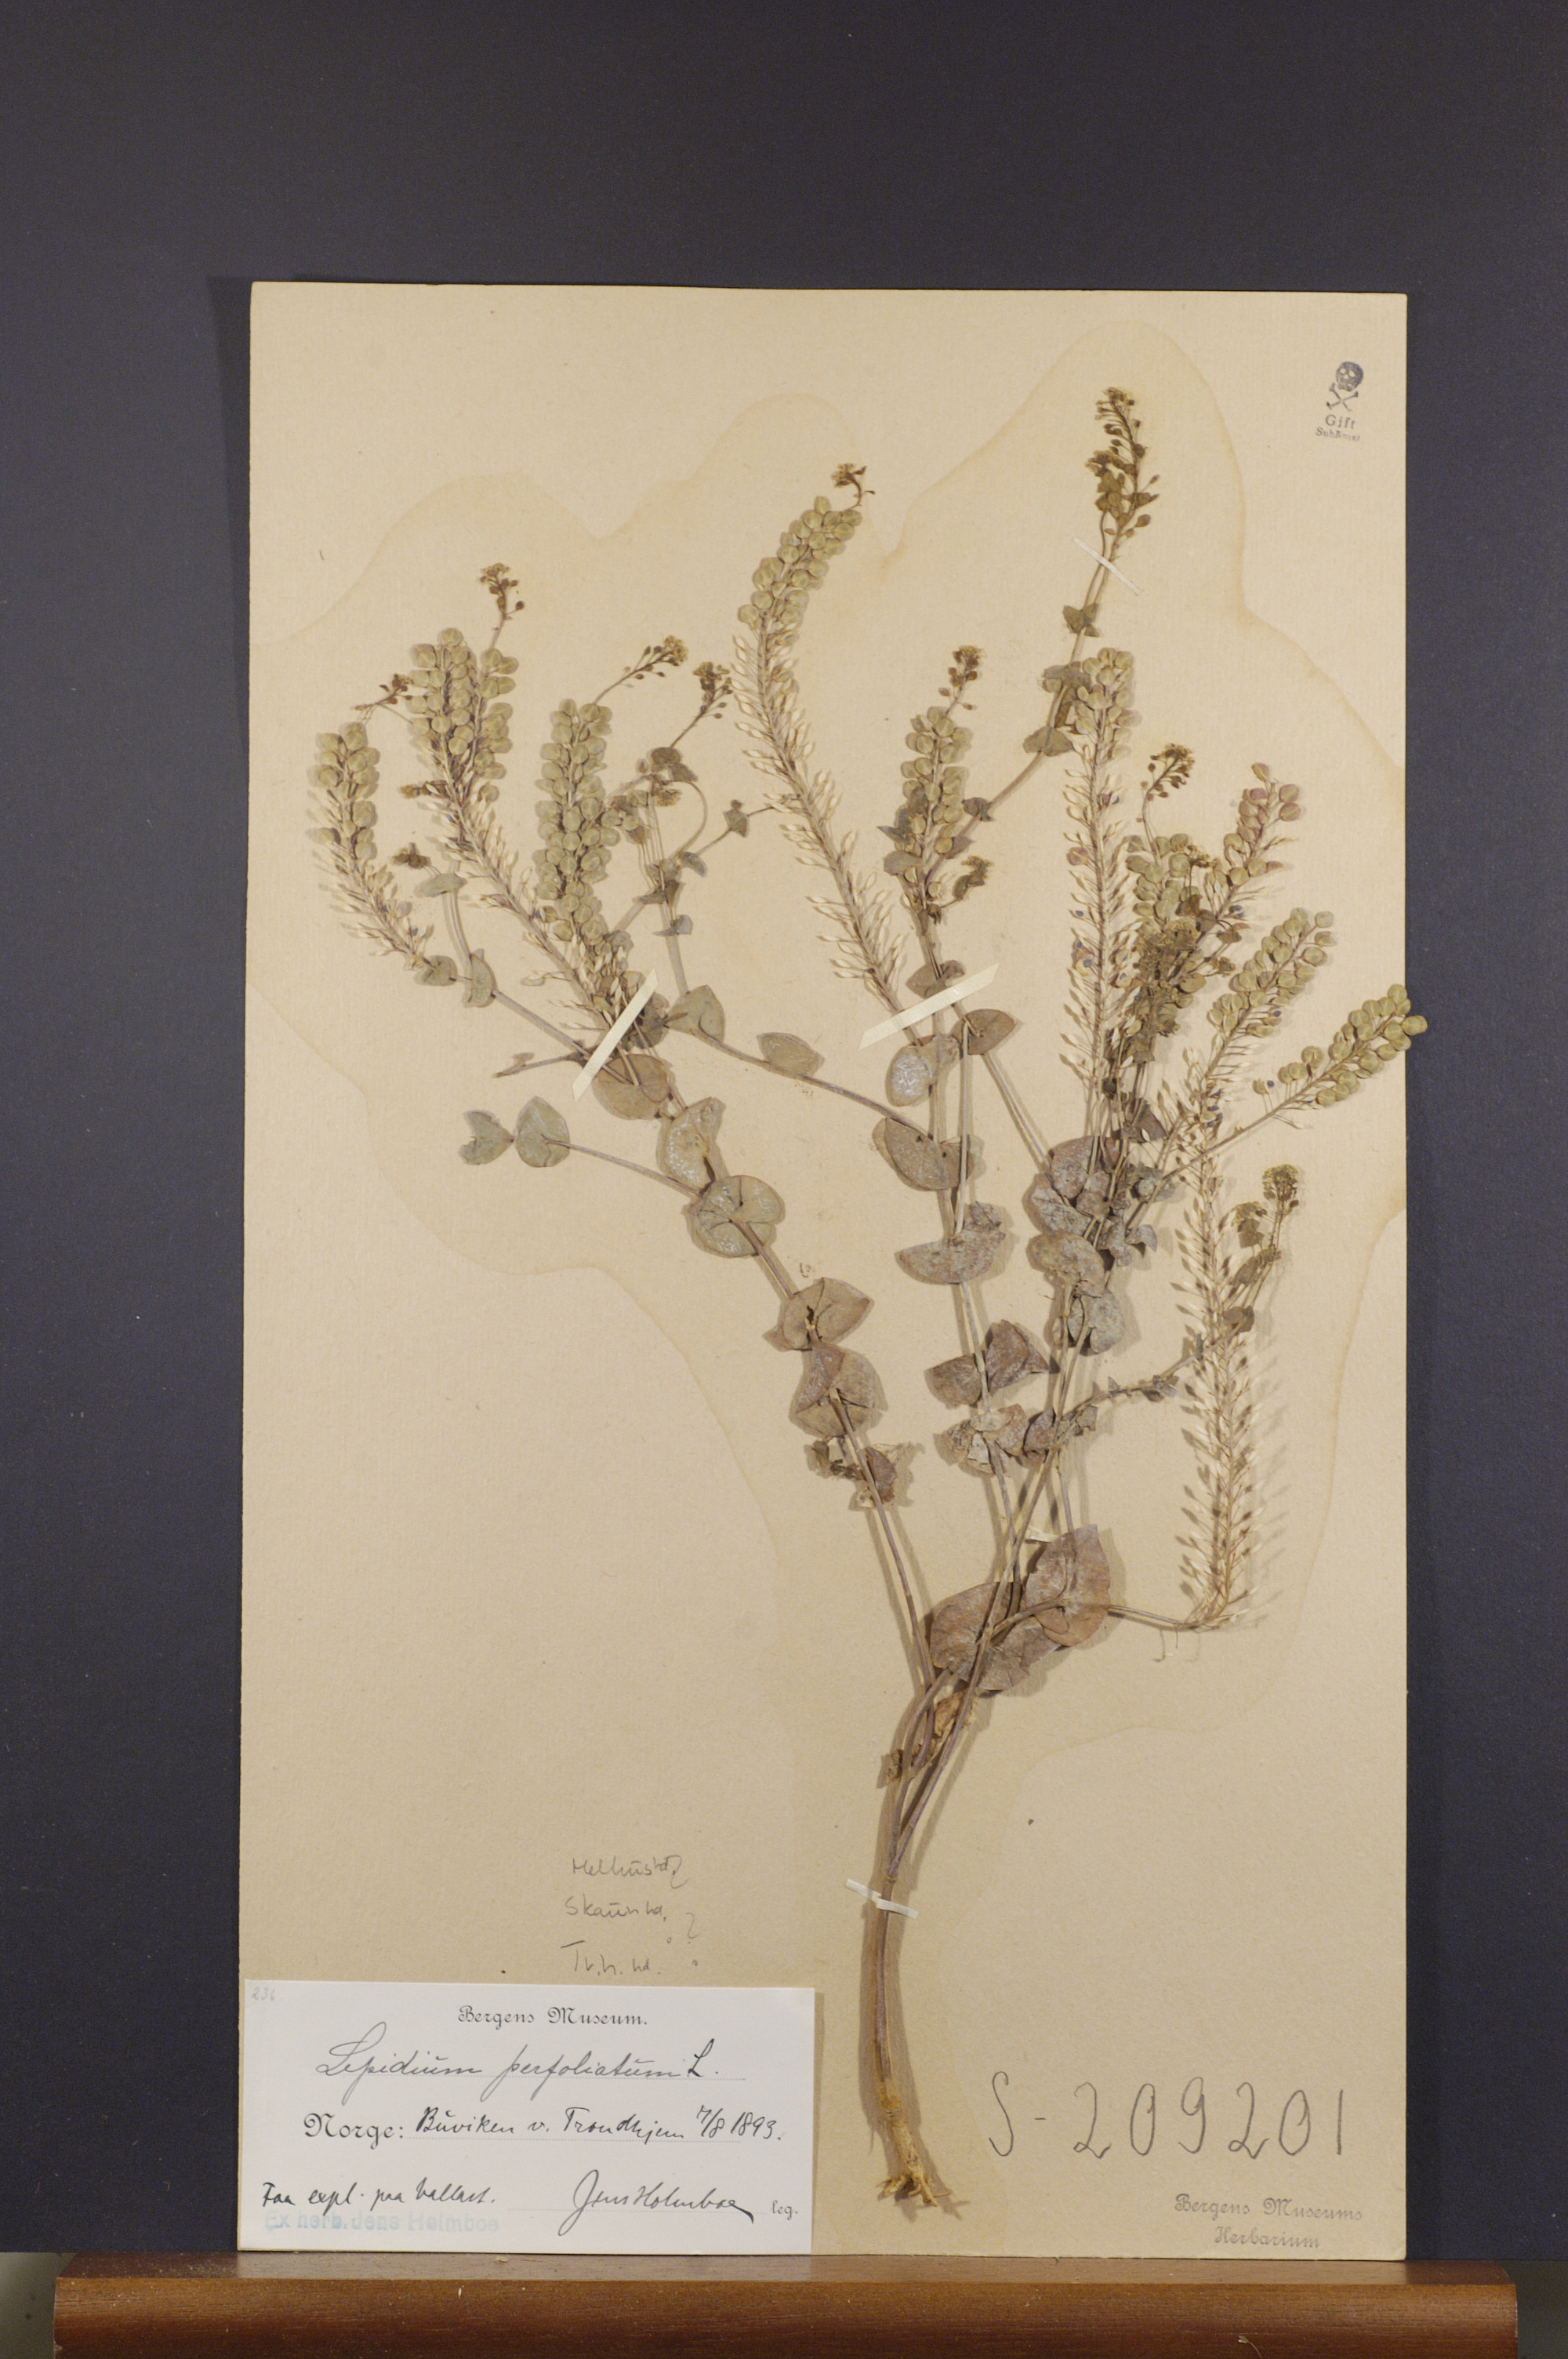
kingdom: Plantae
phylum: Tracheophyta
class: Magnoliopsida
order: Brassicales
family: Brassicaceae
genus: Lepidium
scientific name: Lepidium perfoliatum
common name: Perfoliate pepperwort
